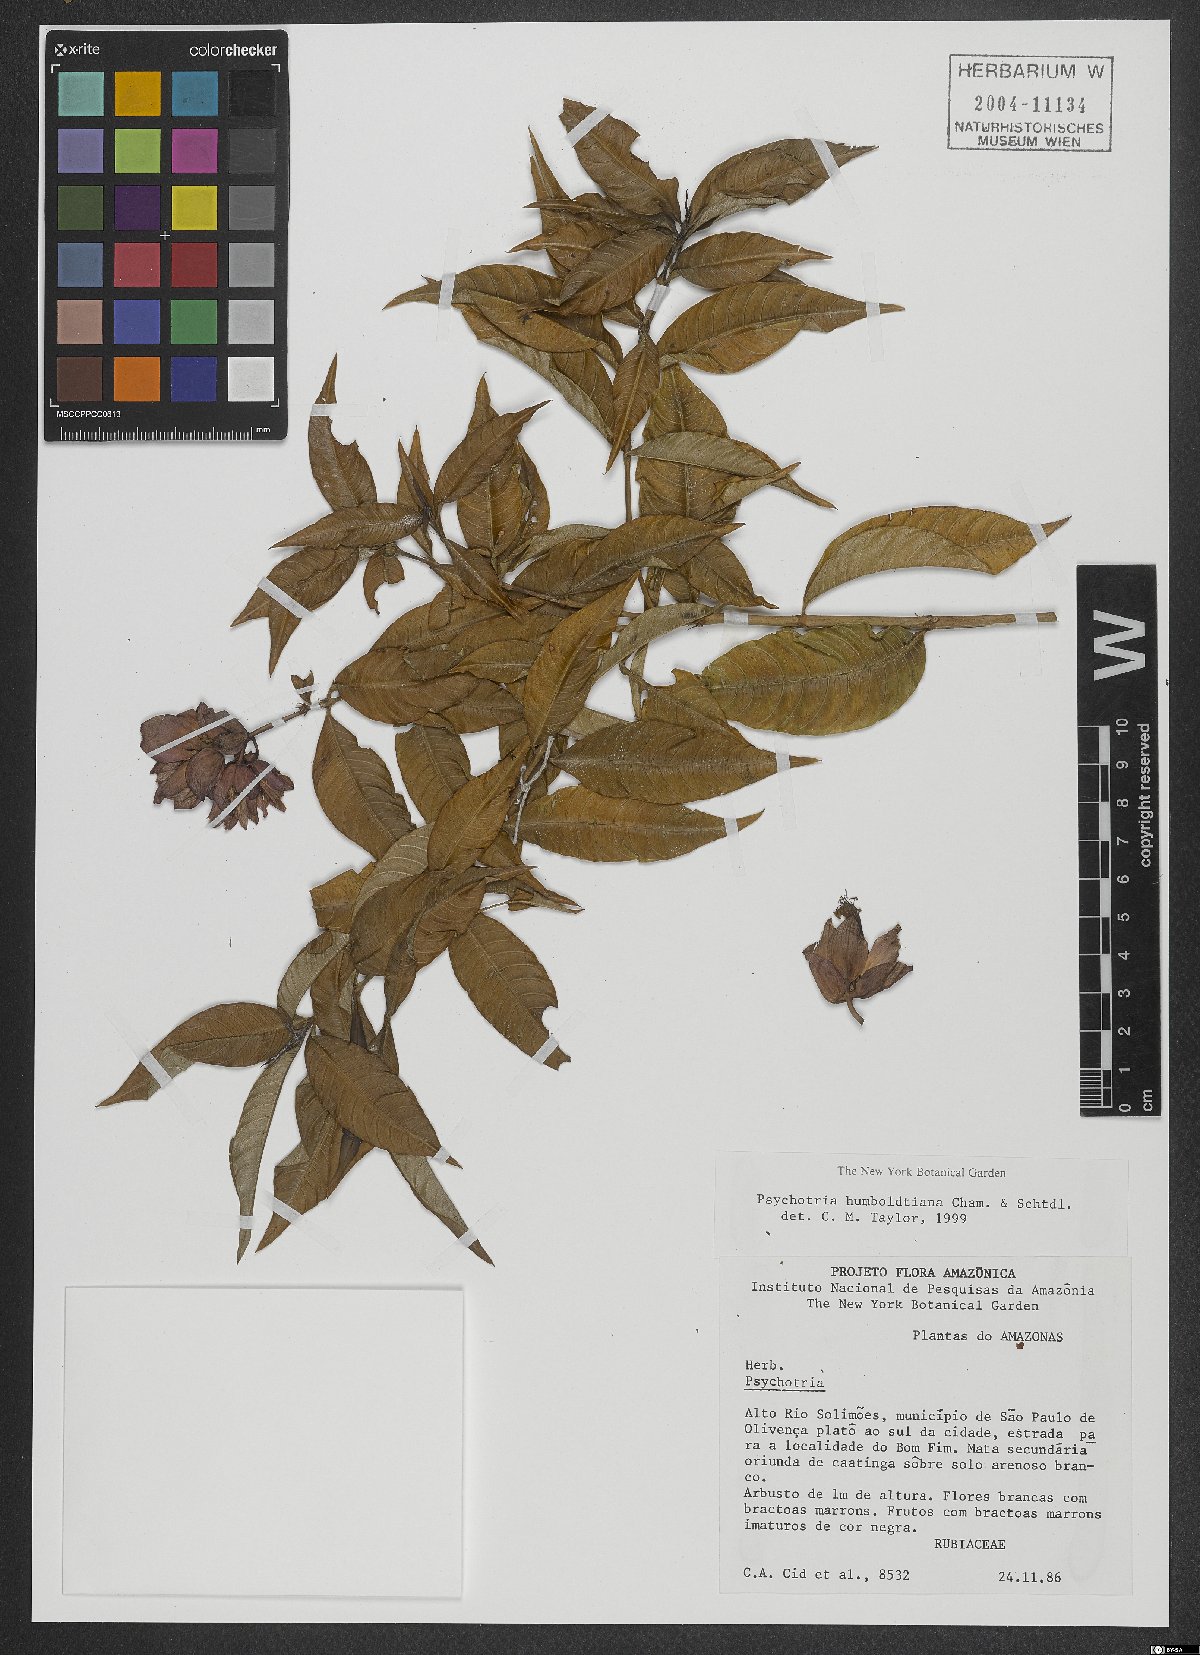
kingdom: Plantae
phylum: Tracheophyta
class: Magnoliopsida
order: Gentianales
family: Rubiaceae
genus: Palicourea
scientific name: Palicourea humboldtiana
